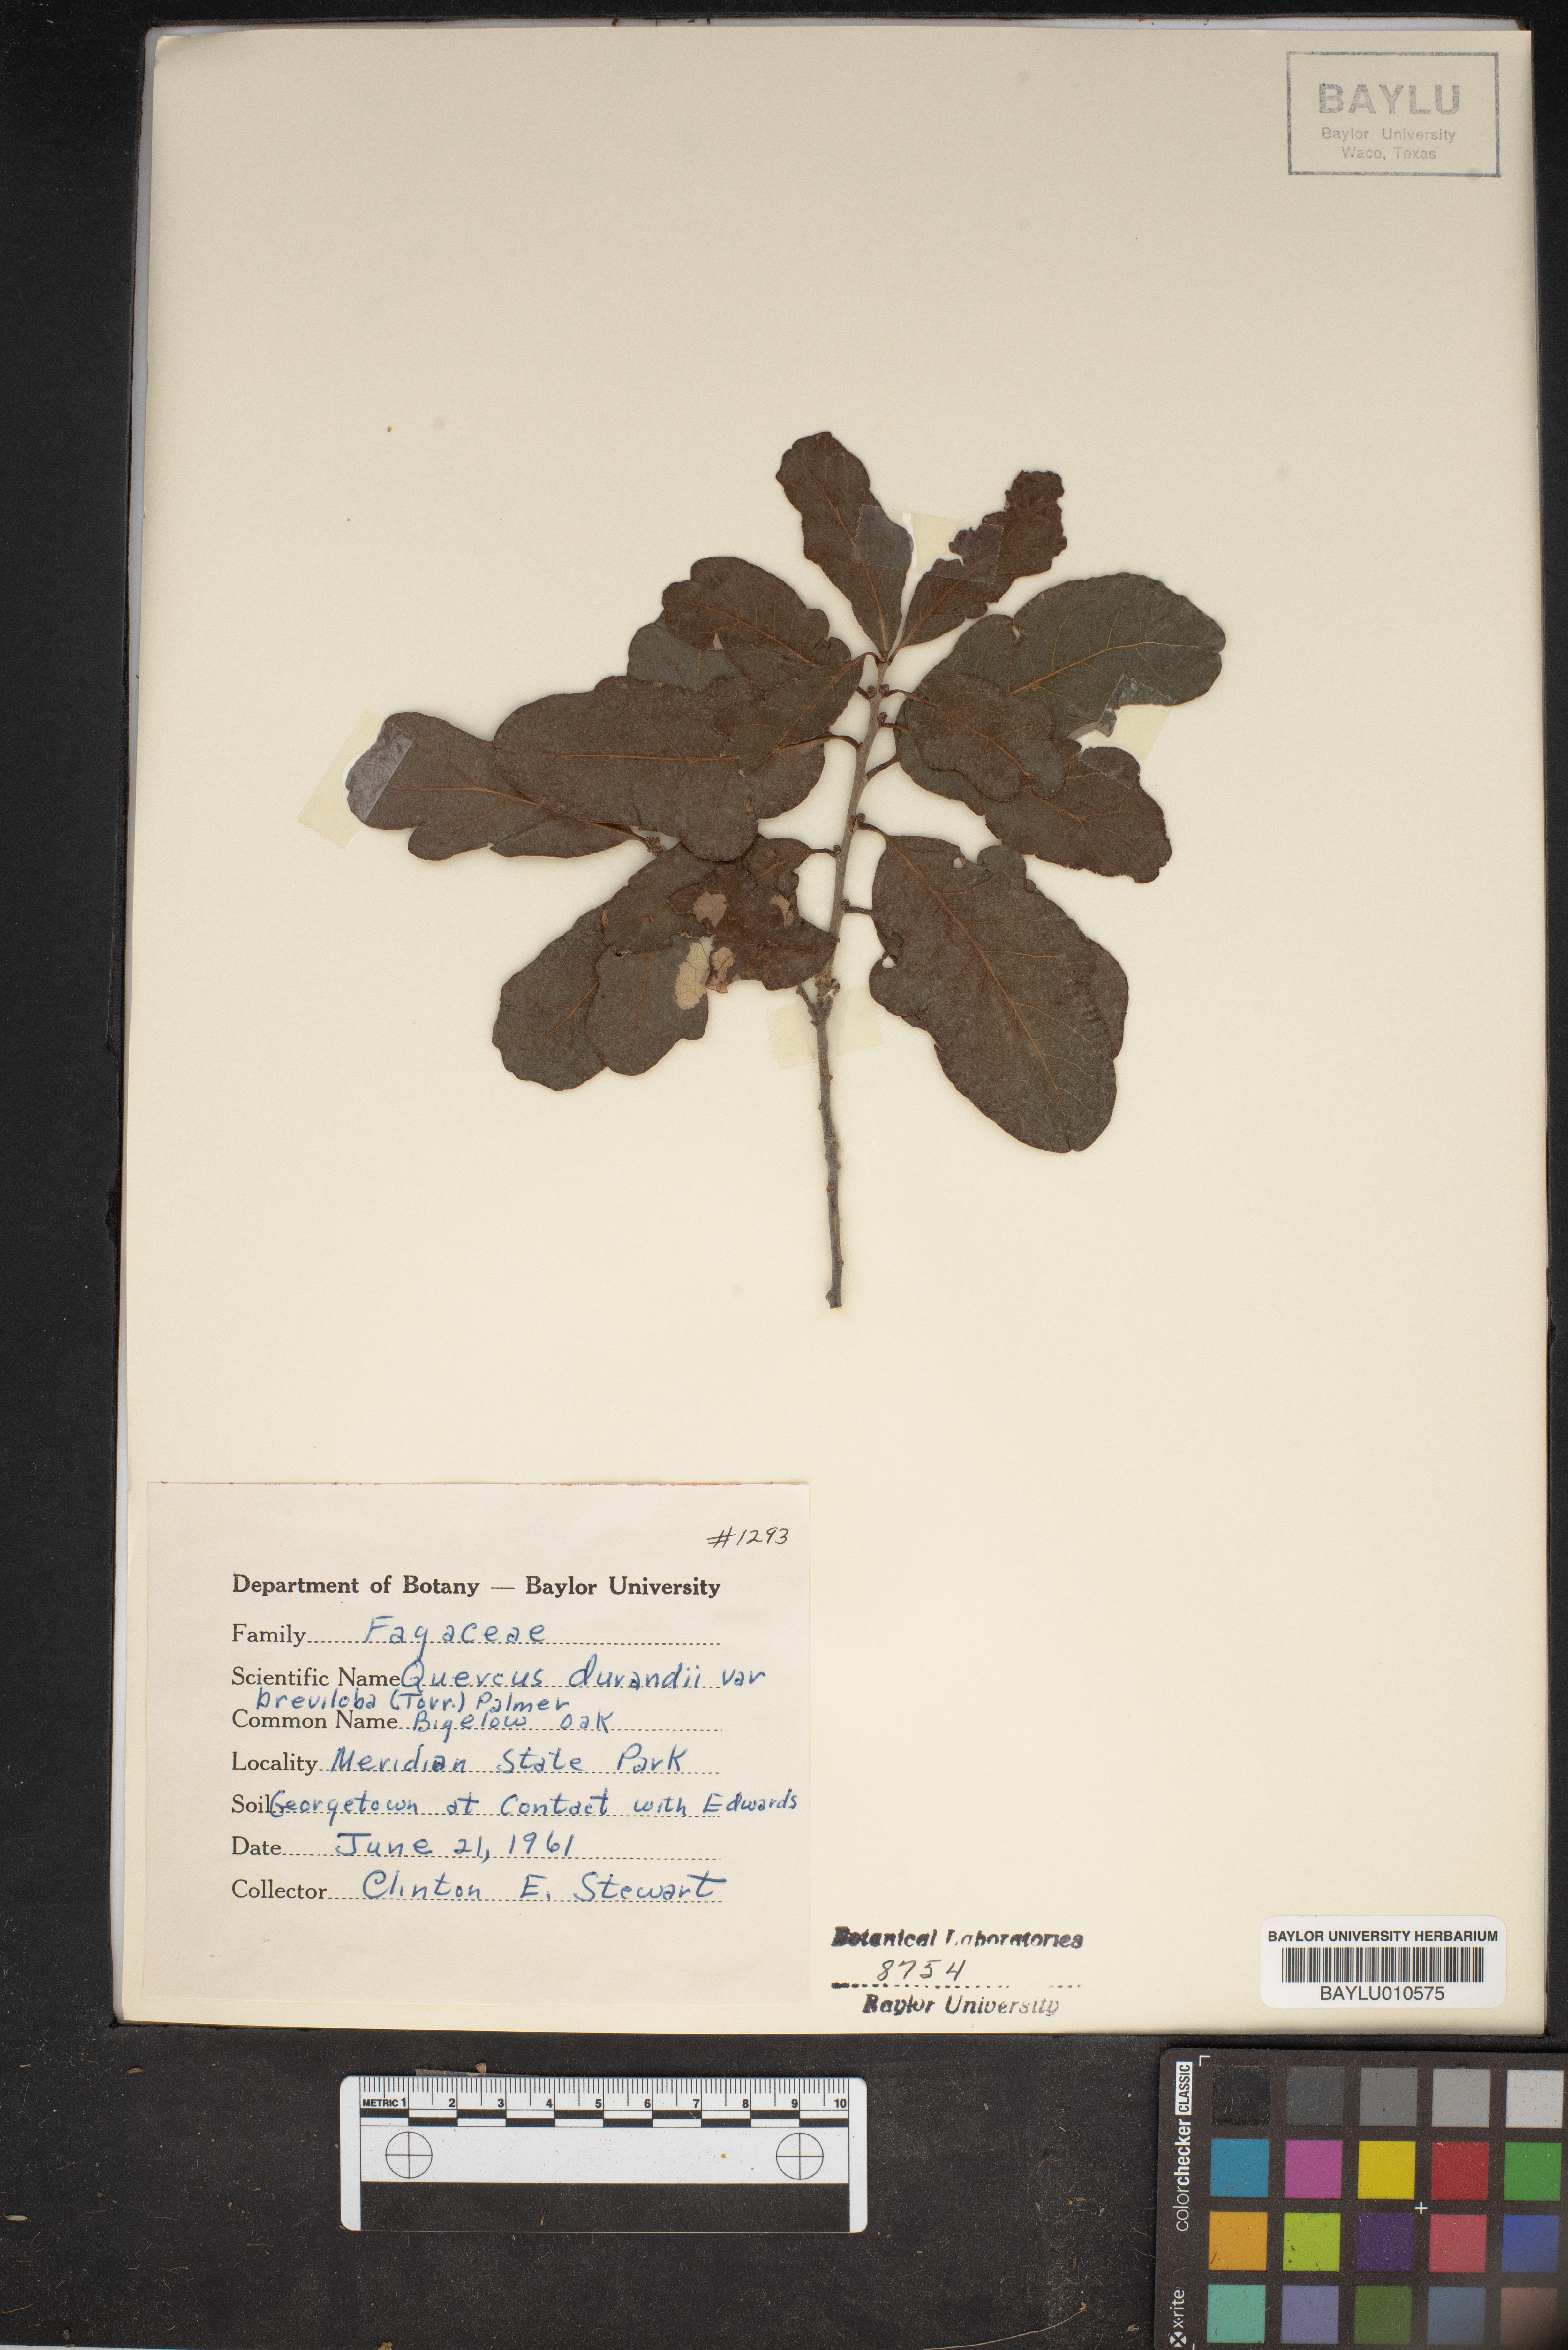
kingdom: Plantae
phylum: Tracheophyta
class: Magnoliopsida
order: Fagales
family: Fagaceae
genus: Quercus
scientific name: Quercus sinuata
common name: Durand oak
